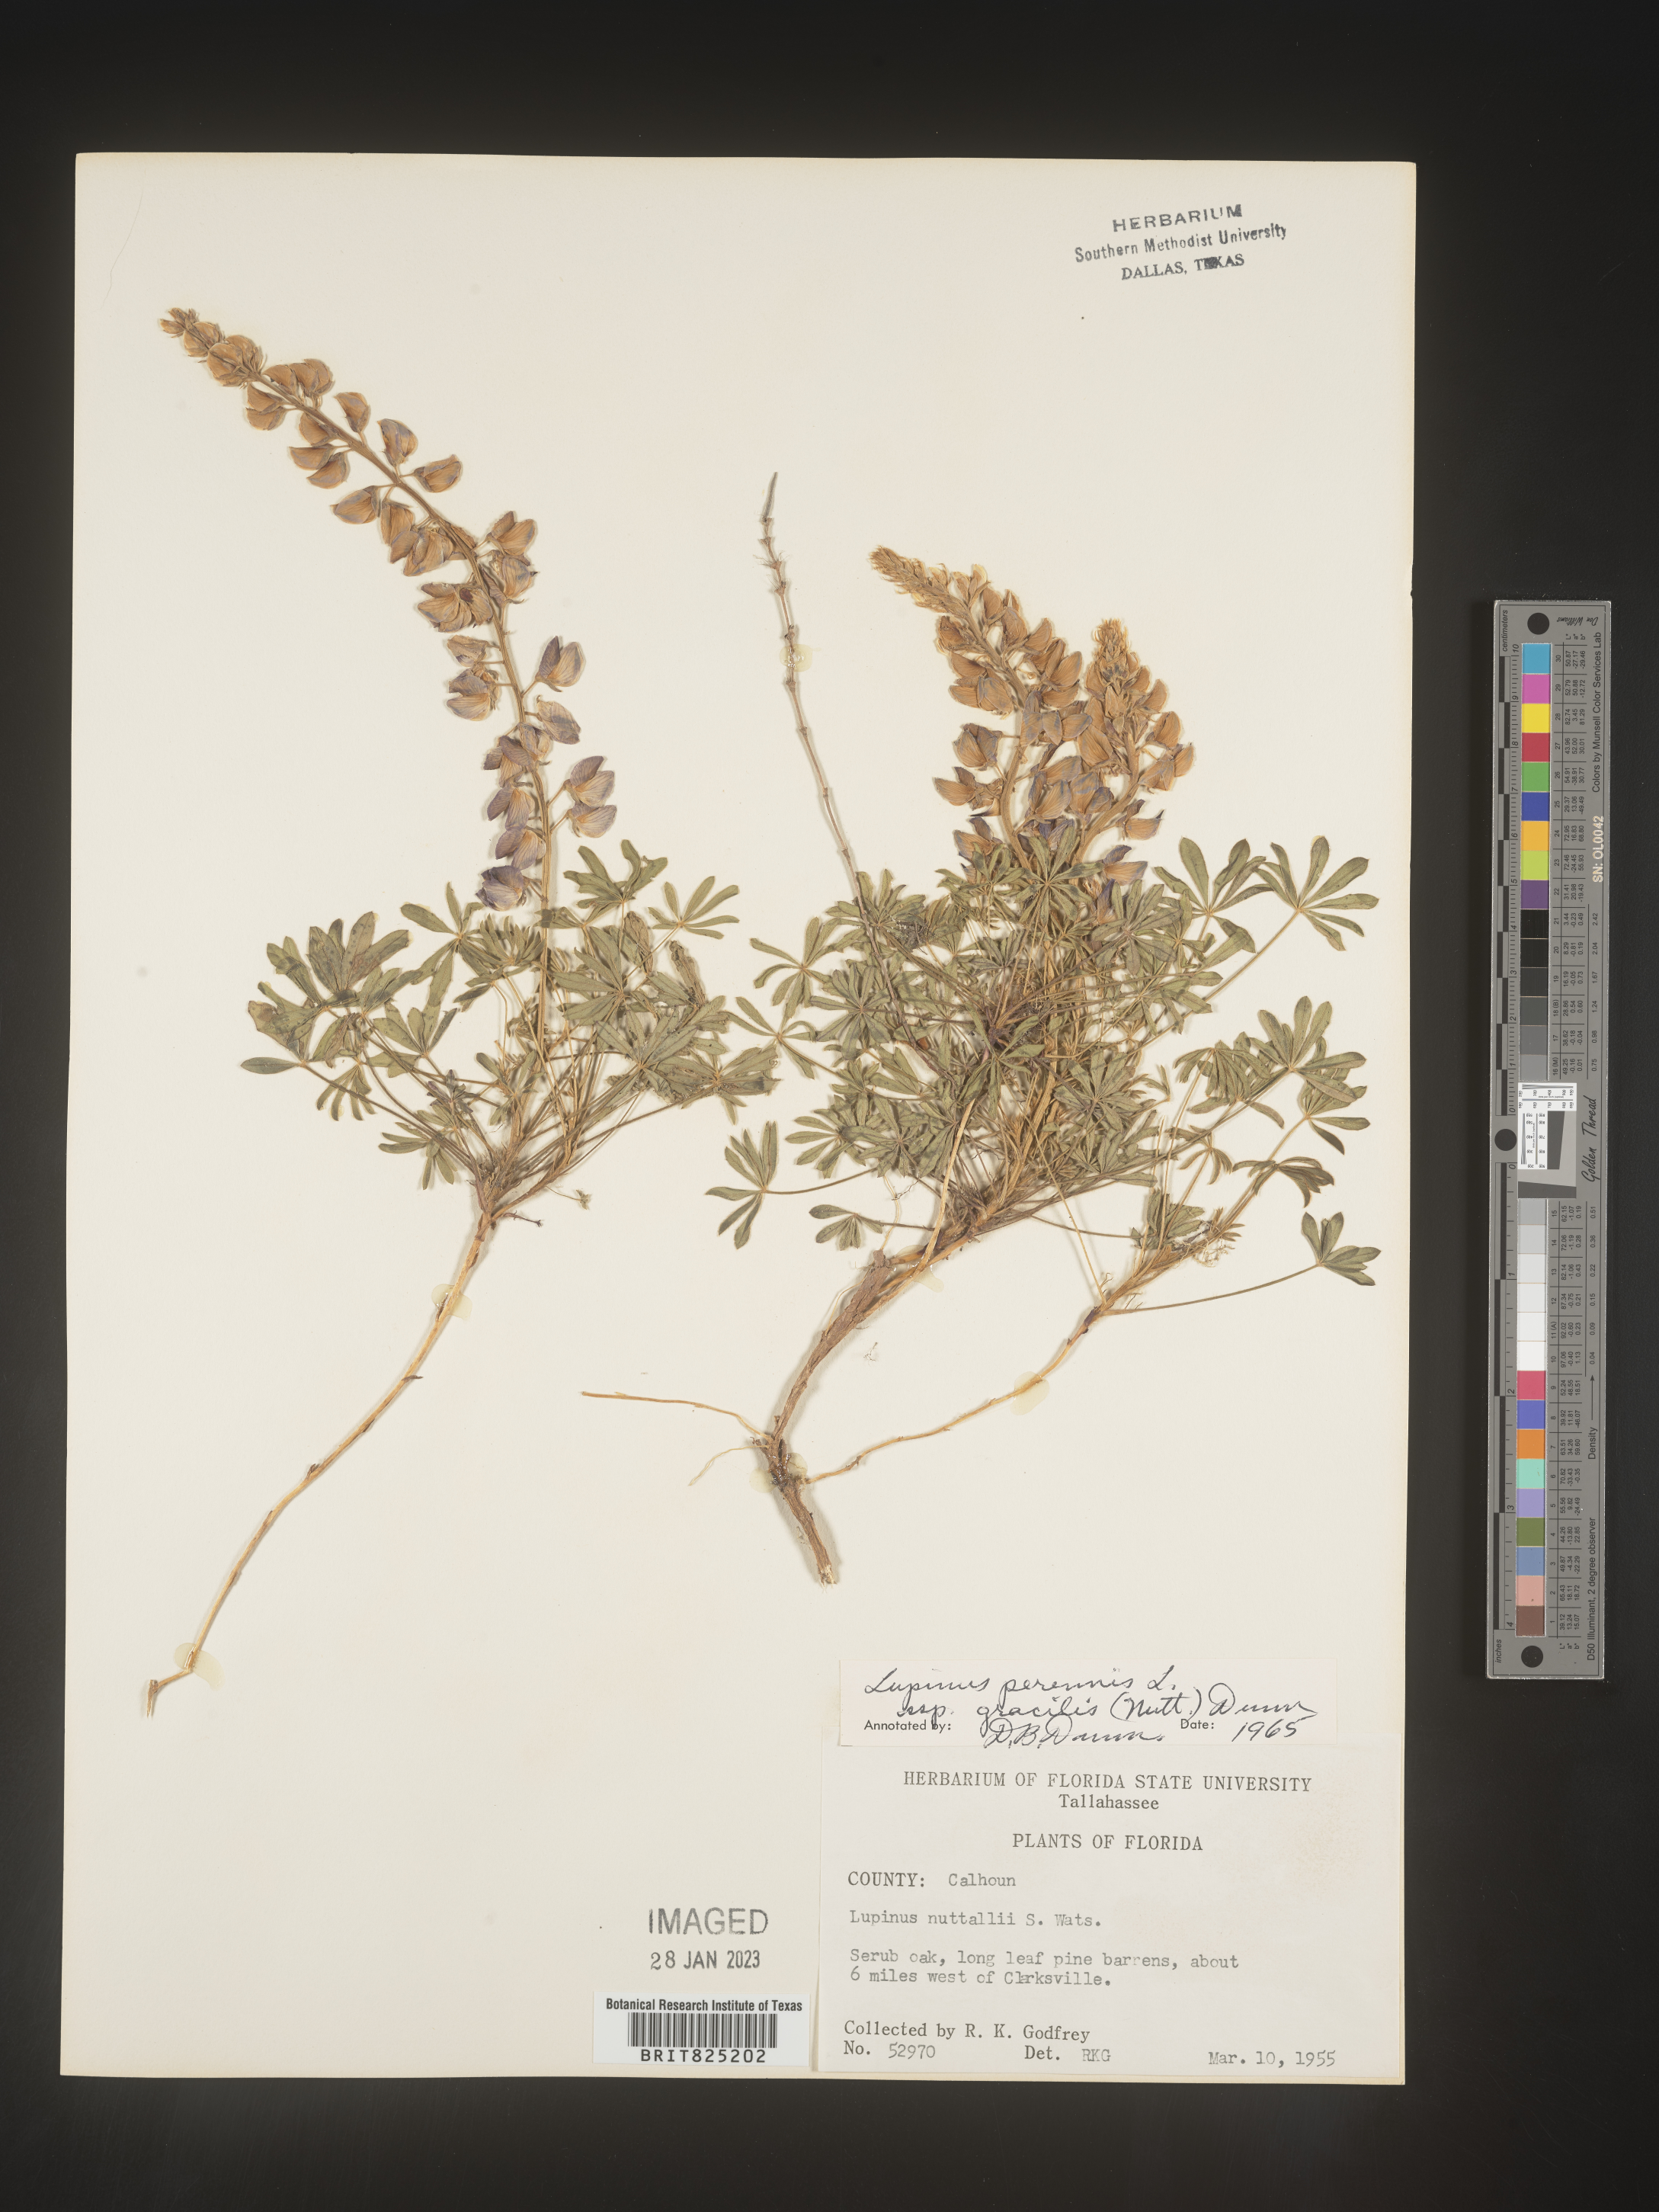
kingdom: Plantae
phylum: Tracheophyta
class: Magnoliopsida
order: Fabales
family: Fabaceae
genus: Lupinus
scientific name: Lupinus perennis
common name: Sundial lupine
